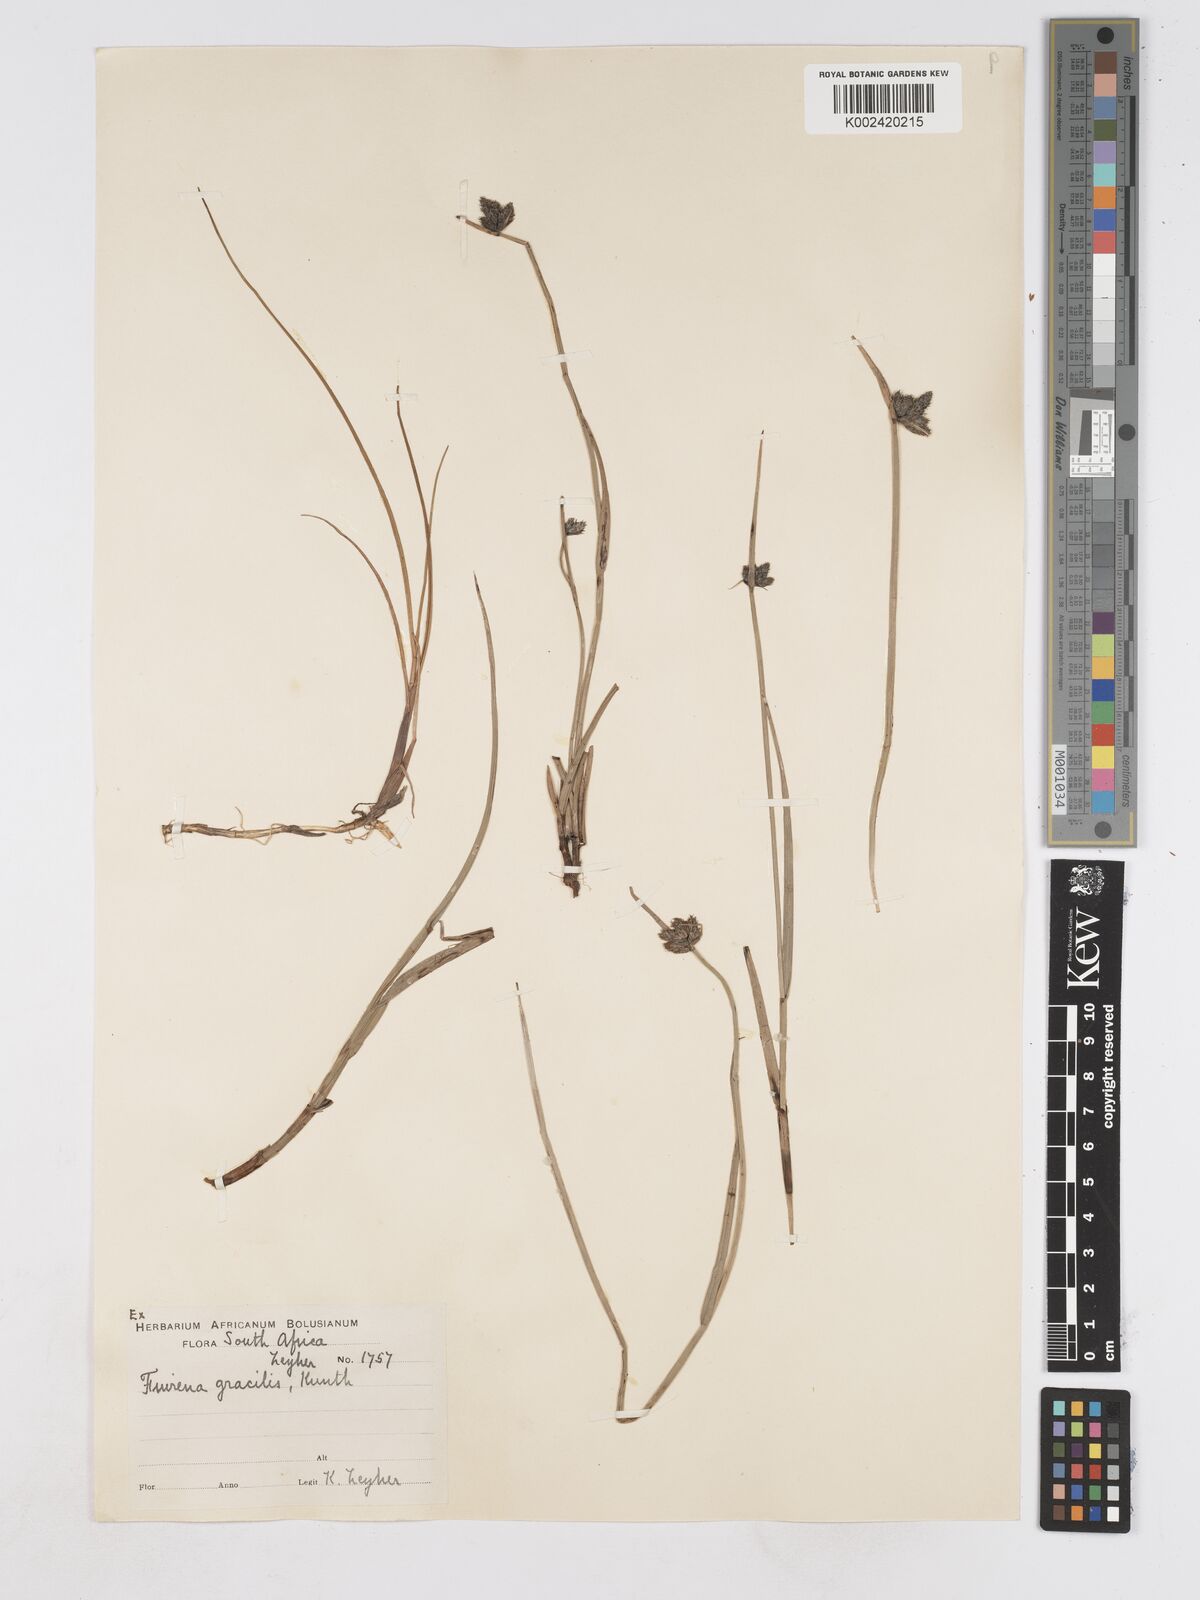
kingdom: Plantae
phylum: Tracheophyta
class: Liliopsida
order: Poales
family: Cyperaceae
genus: Fuirena
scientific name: Fuirena coerulescens
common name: Blue umbrella-sedge
